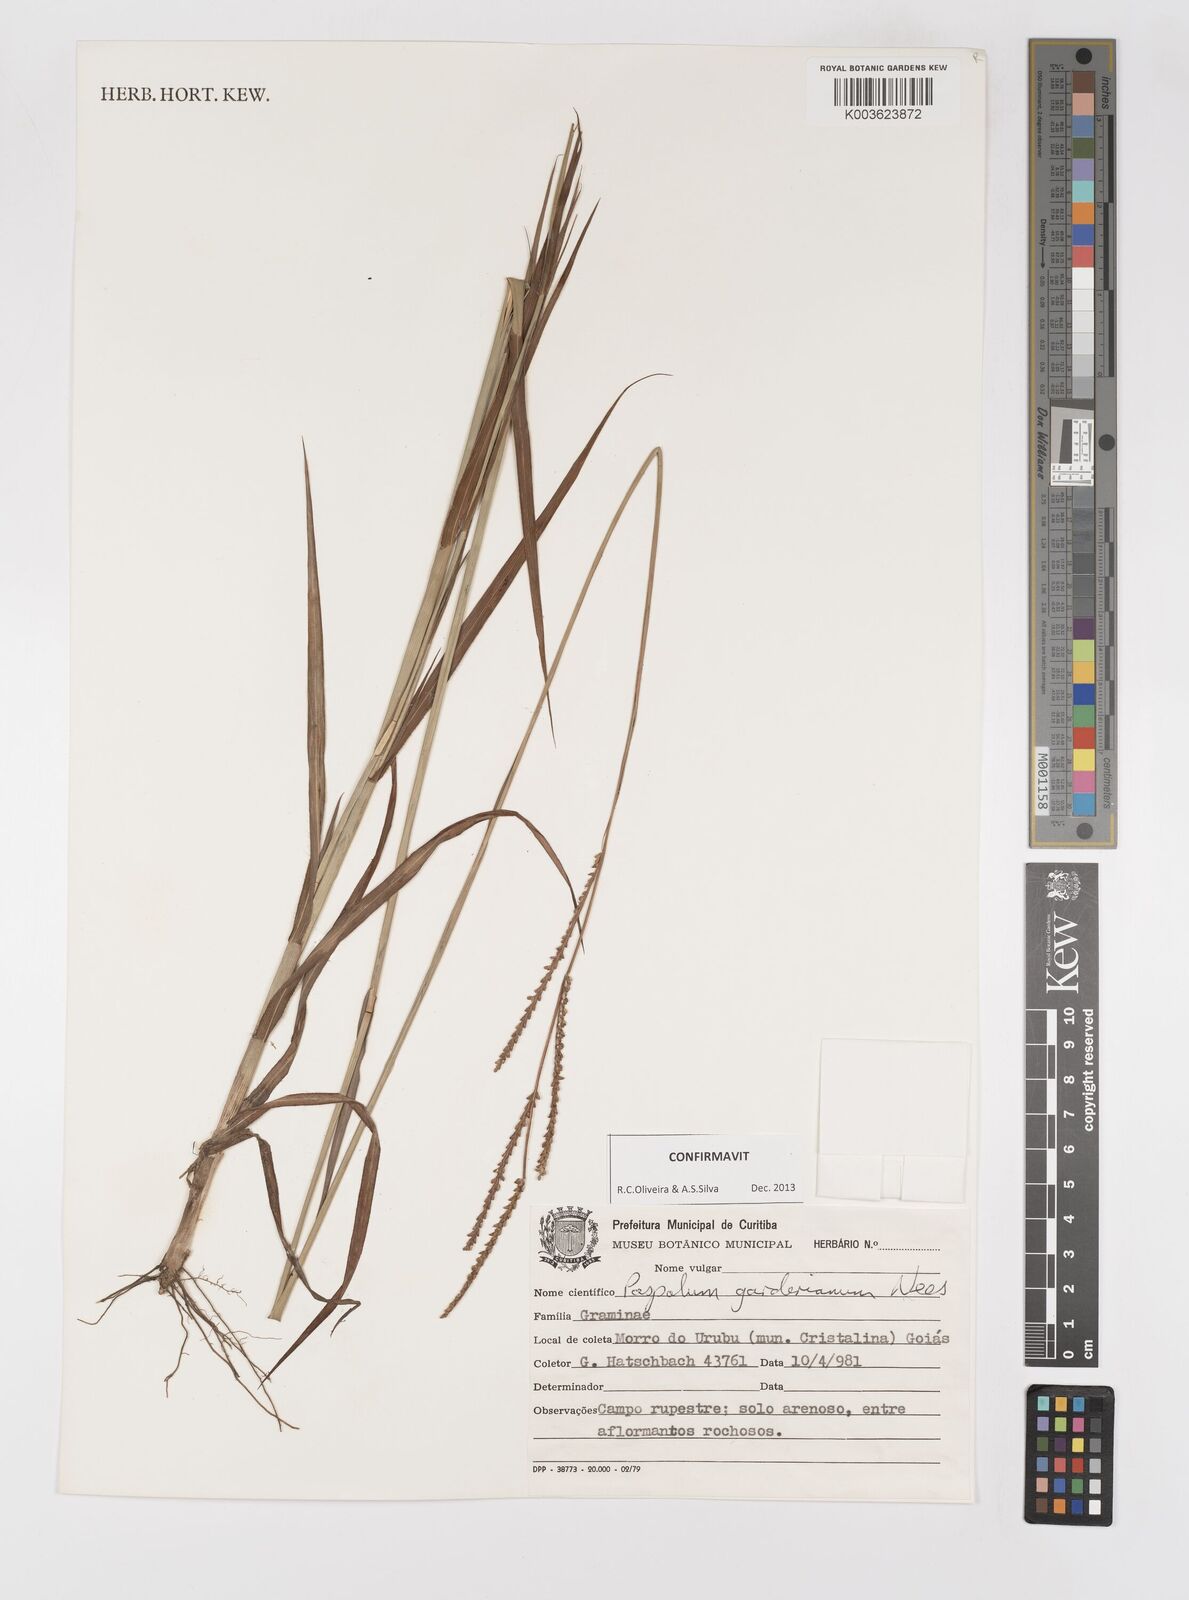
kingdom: Plantae
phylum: Tracheophyta
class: Liliopsida
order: Poales
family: Poaceae
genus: Paspalum
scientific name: Paspalum gardnerianum
